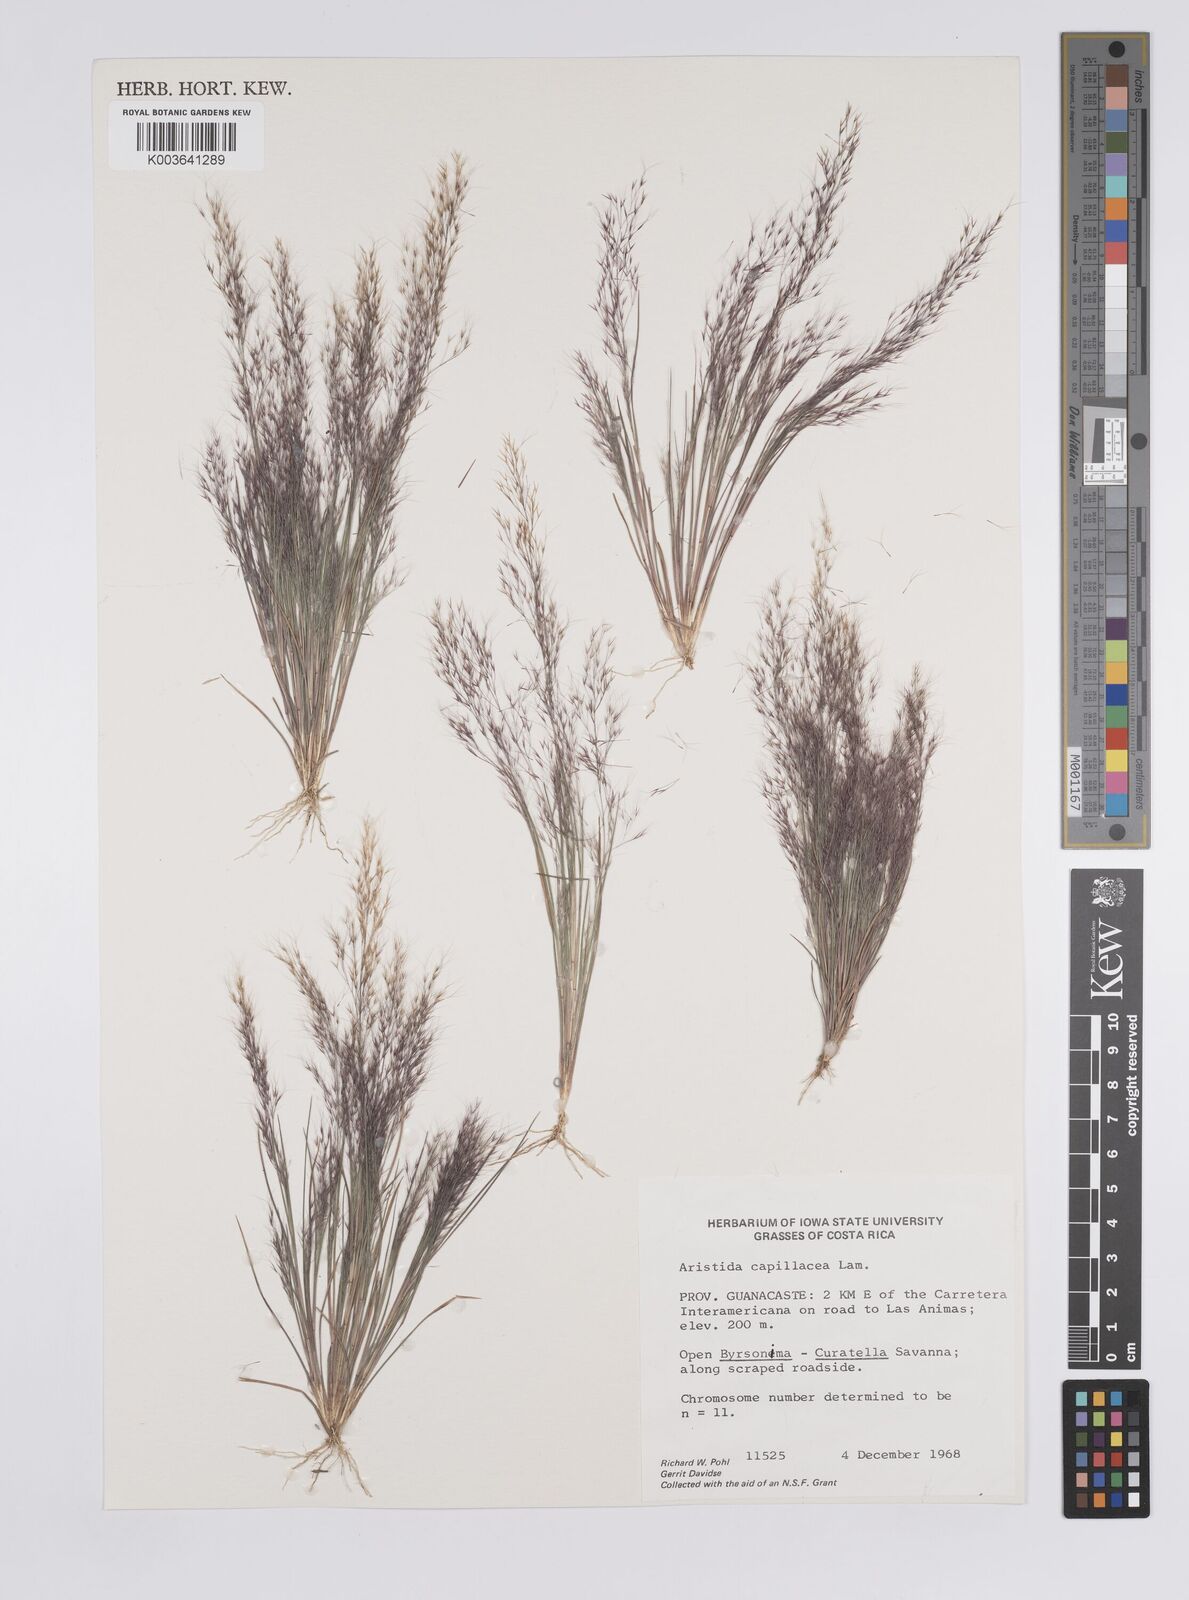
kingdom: Plantae
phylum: Tracheophyta
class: Liliopsida
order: Poales
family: Poaceae
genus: Aristida
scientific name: Aristida
